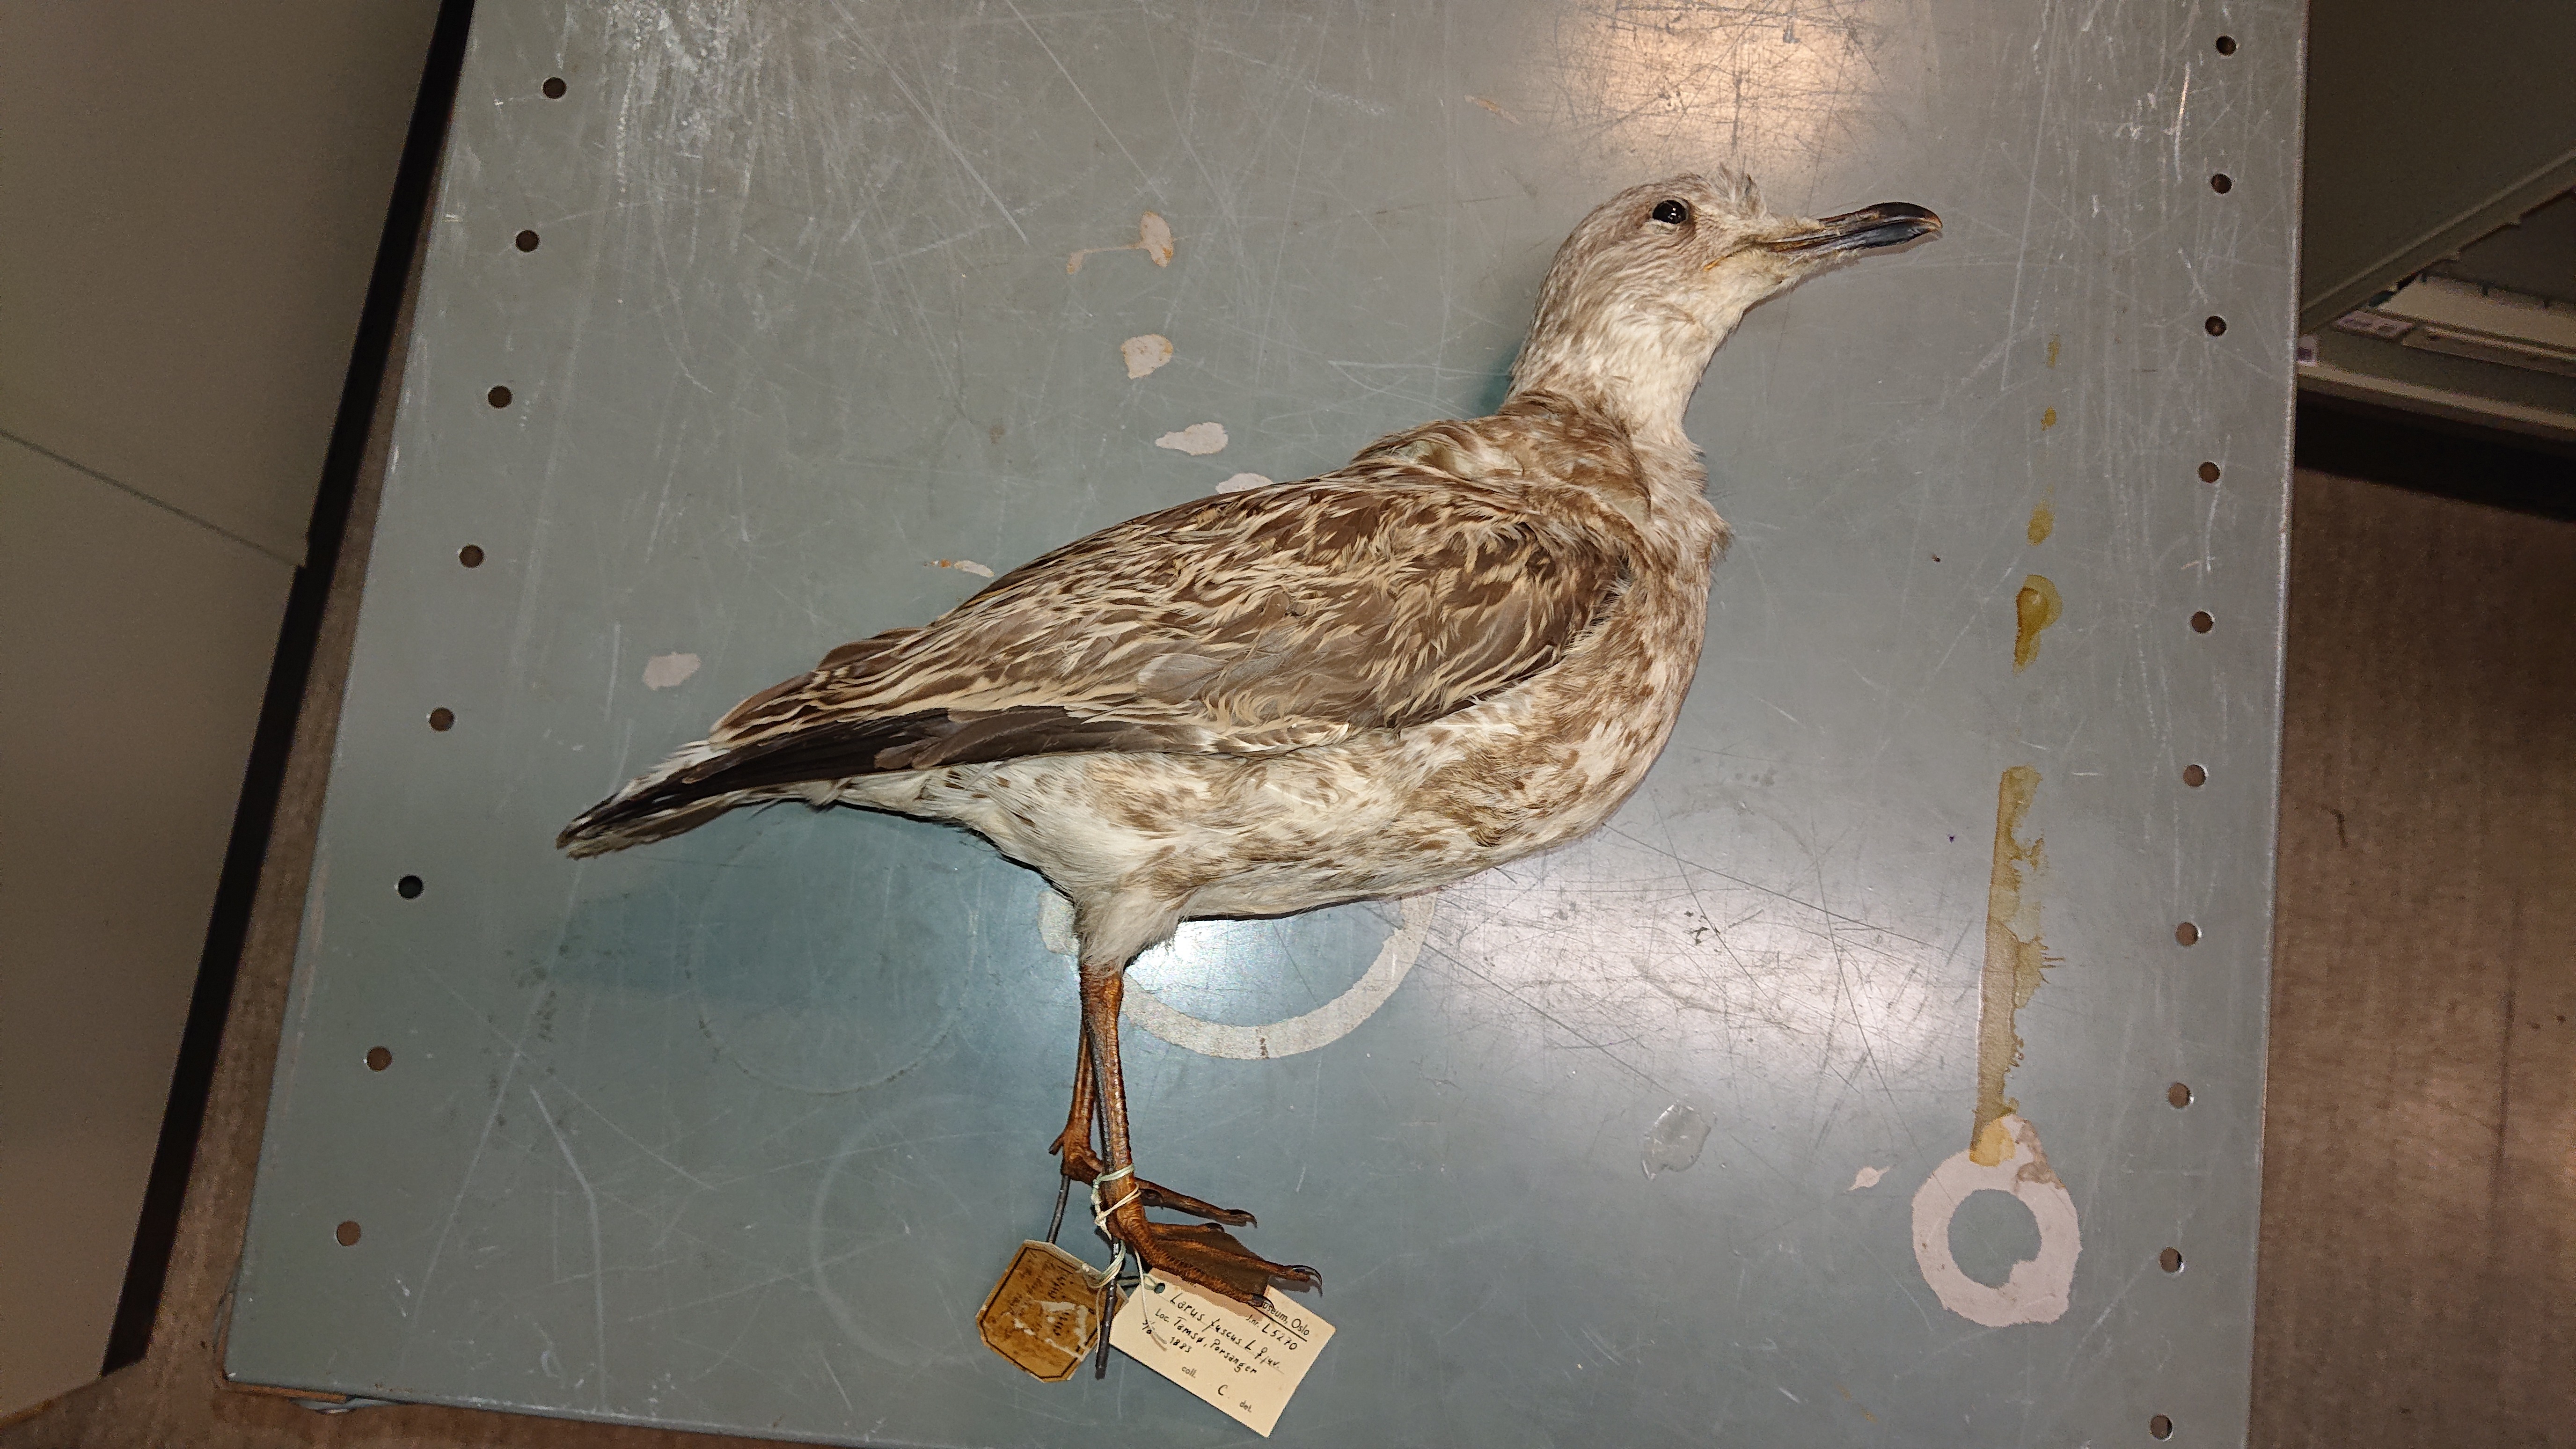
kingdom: Animalia
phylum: Chordata
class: Aves
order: Charadriiformes
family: Laridae
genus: Larus
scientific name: Larus fuscus
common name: Lesser black-backed gull
